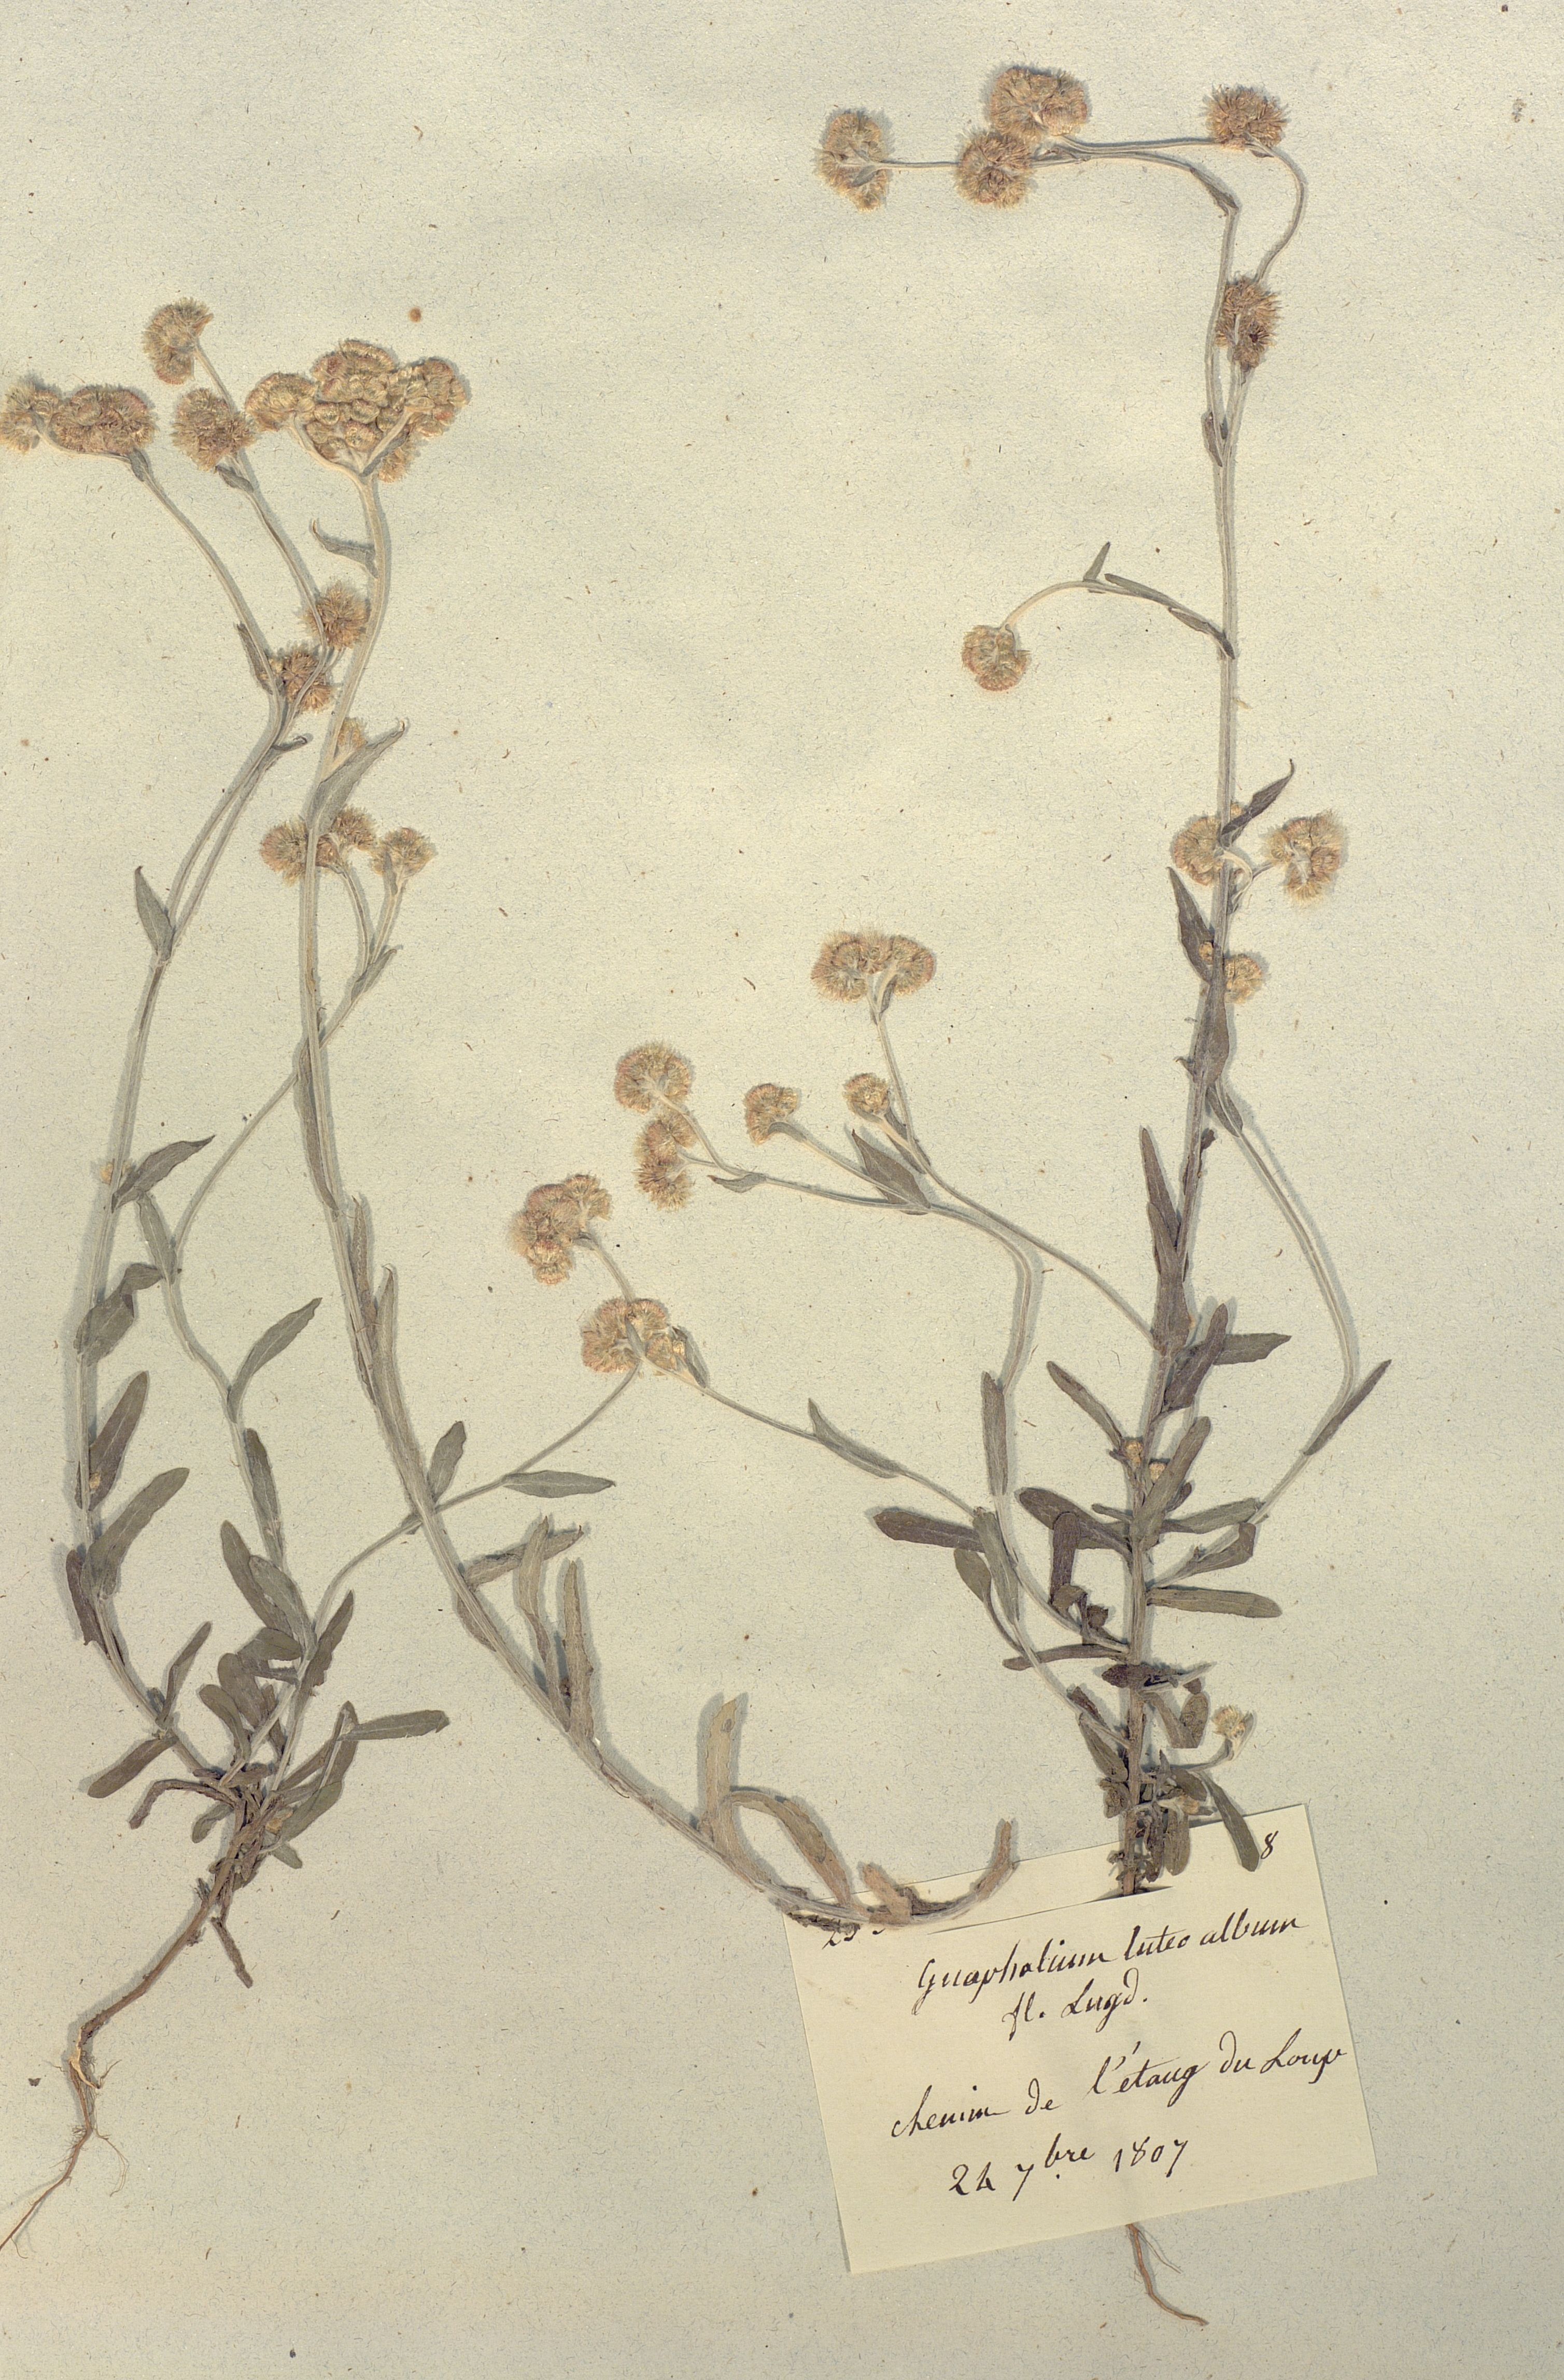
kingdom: Plantae
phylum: Tracheophyta
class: Magnoliopsida
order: Asterales
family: Asteraceae
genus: Helichrysum
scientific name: Helichrysum luteoalbum
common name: Daisy
